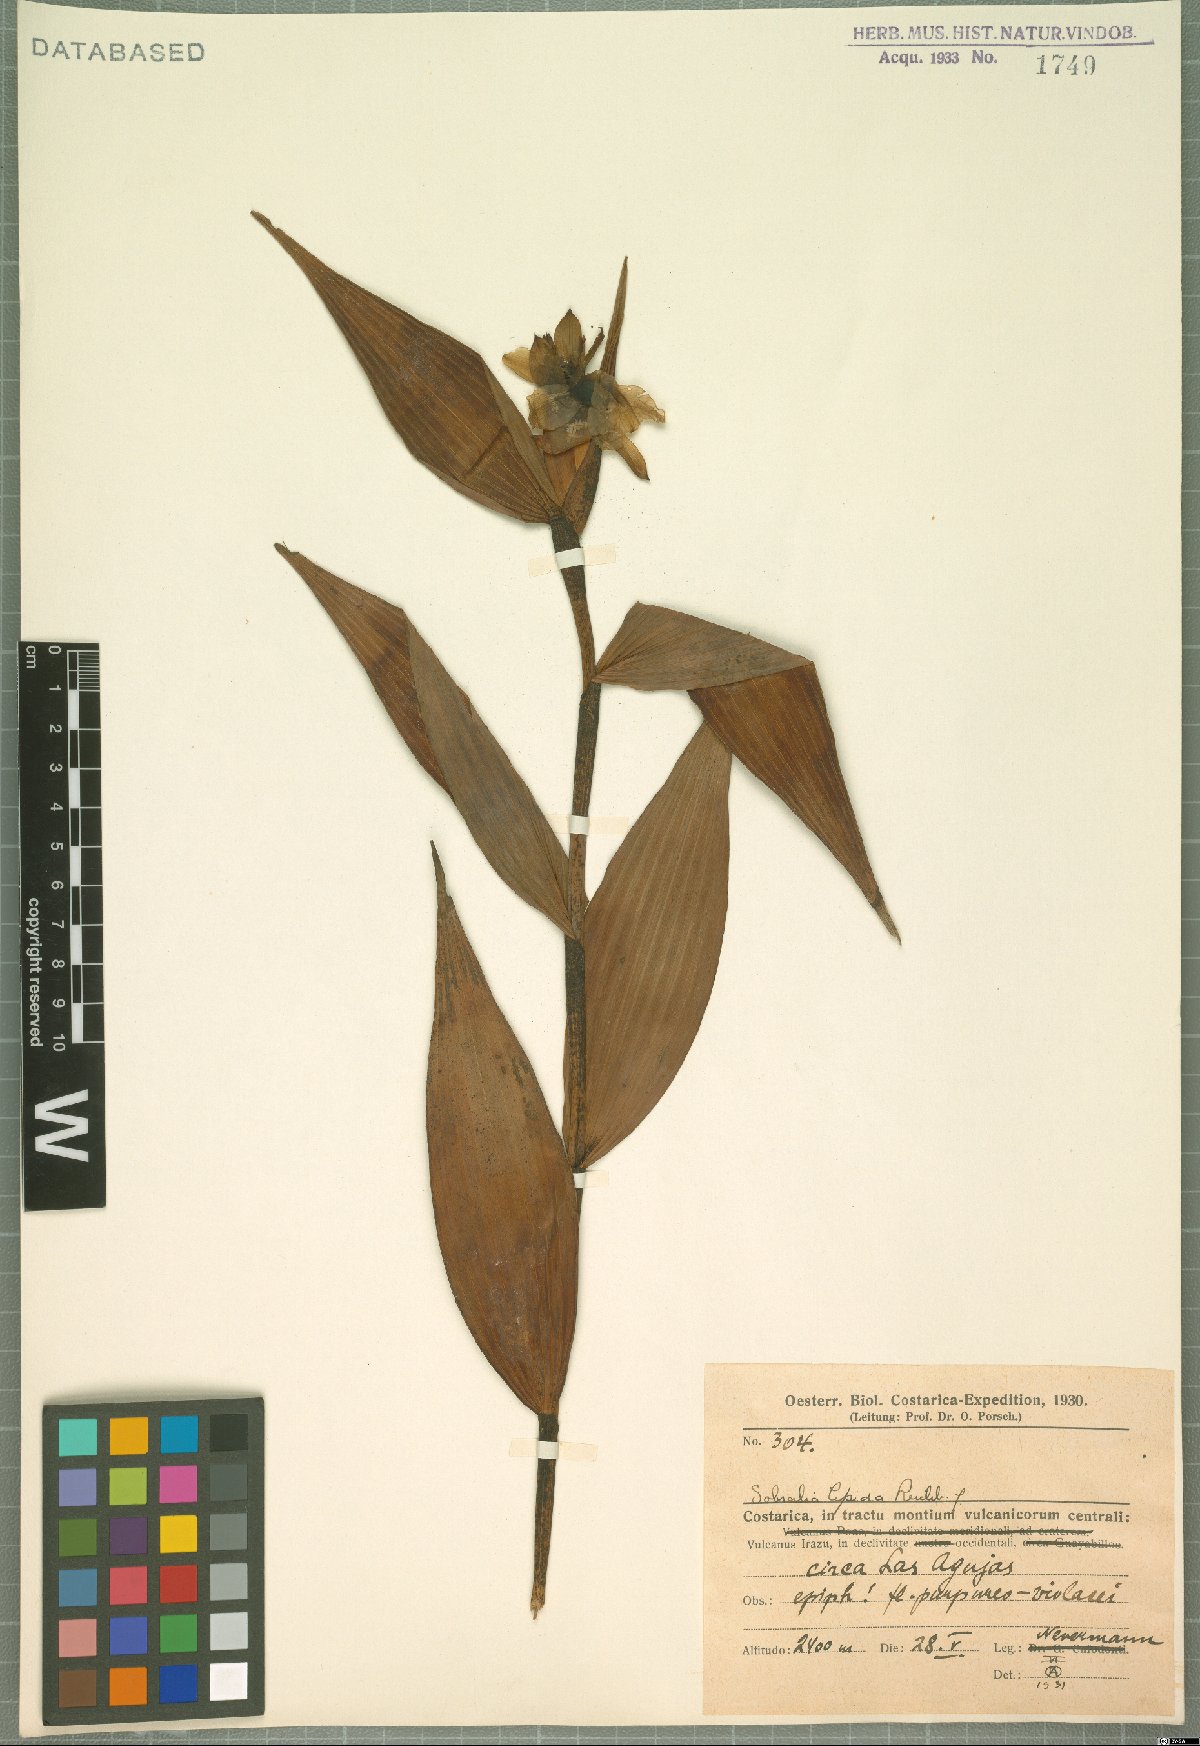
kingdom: Plantae
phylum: Tracheophyta
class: Liliopsida
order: Asparagales
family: Orchidaceae
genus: Sobralia
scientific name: Sobralia amabilis
